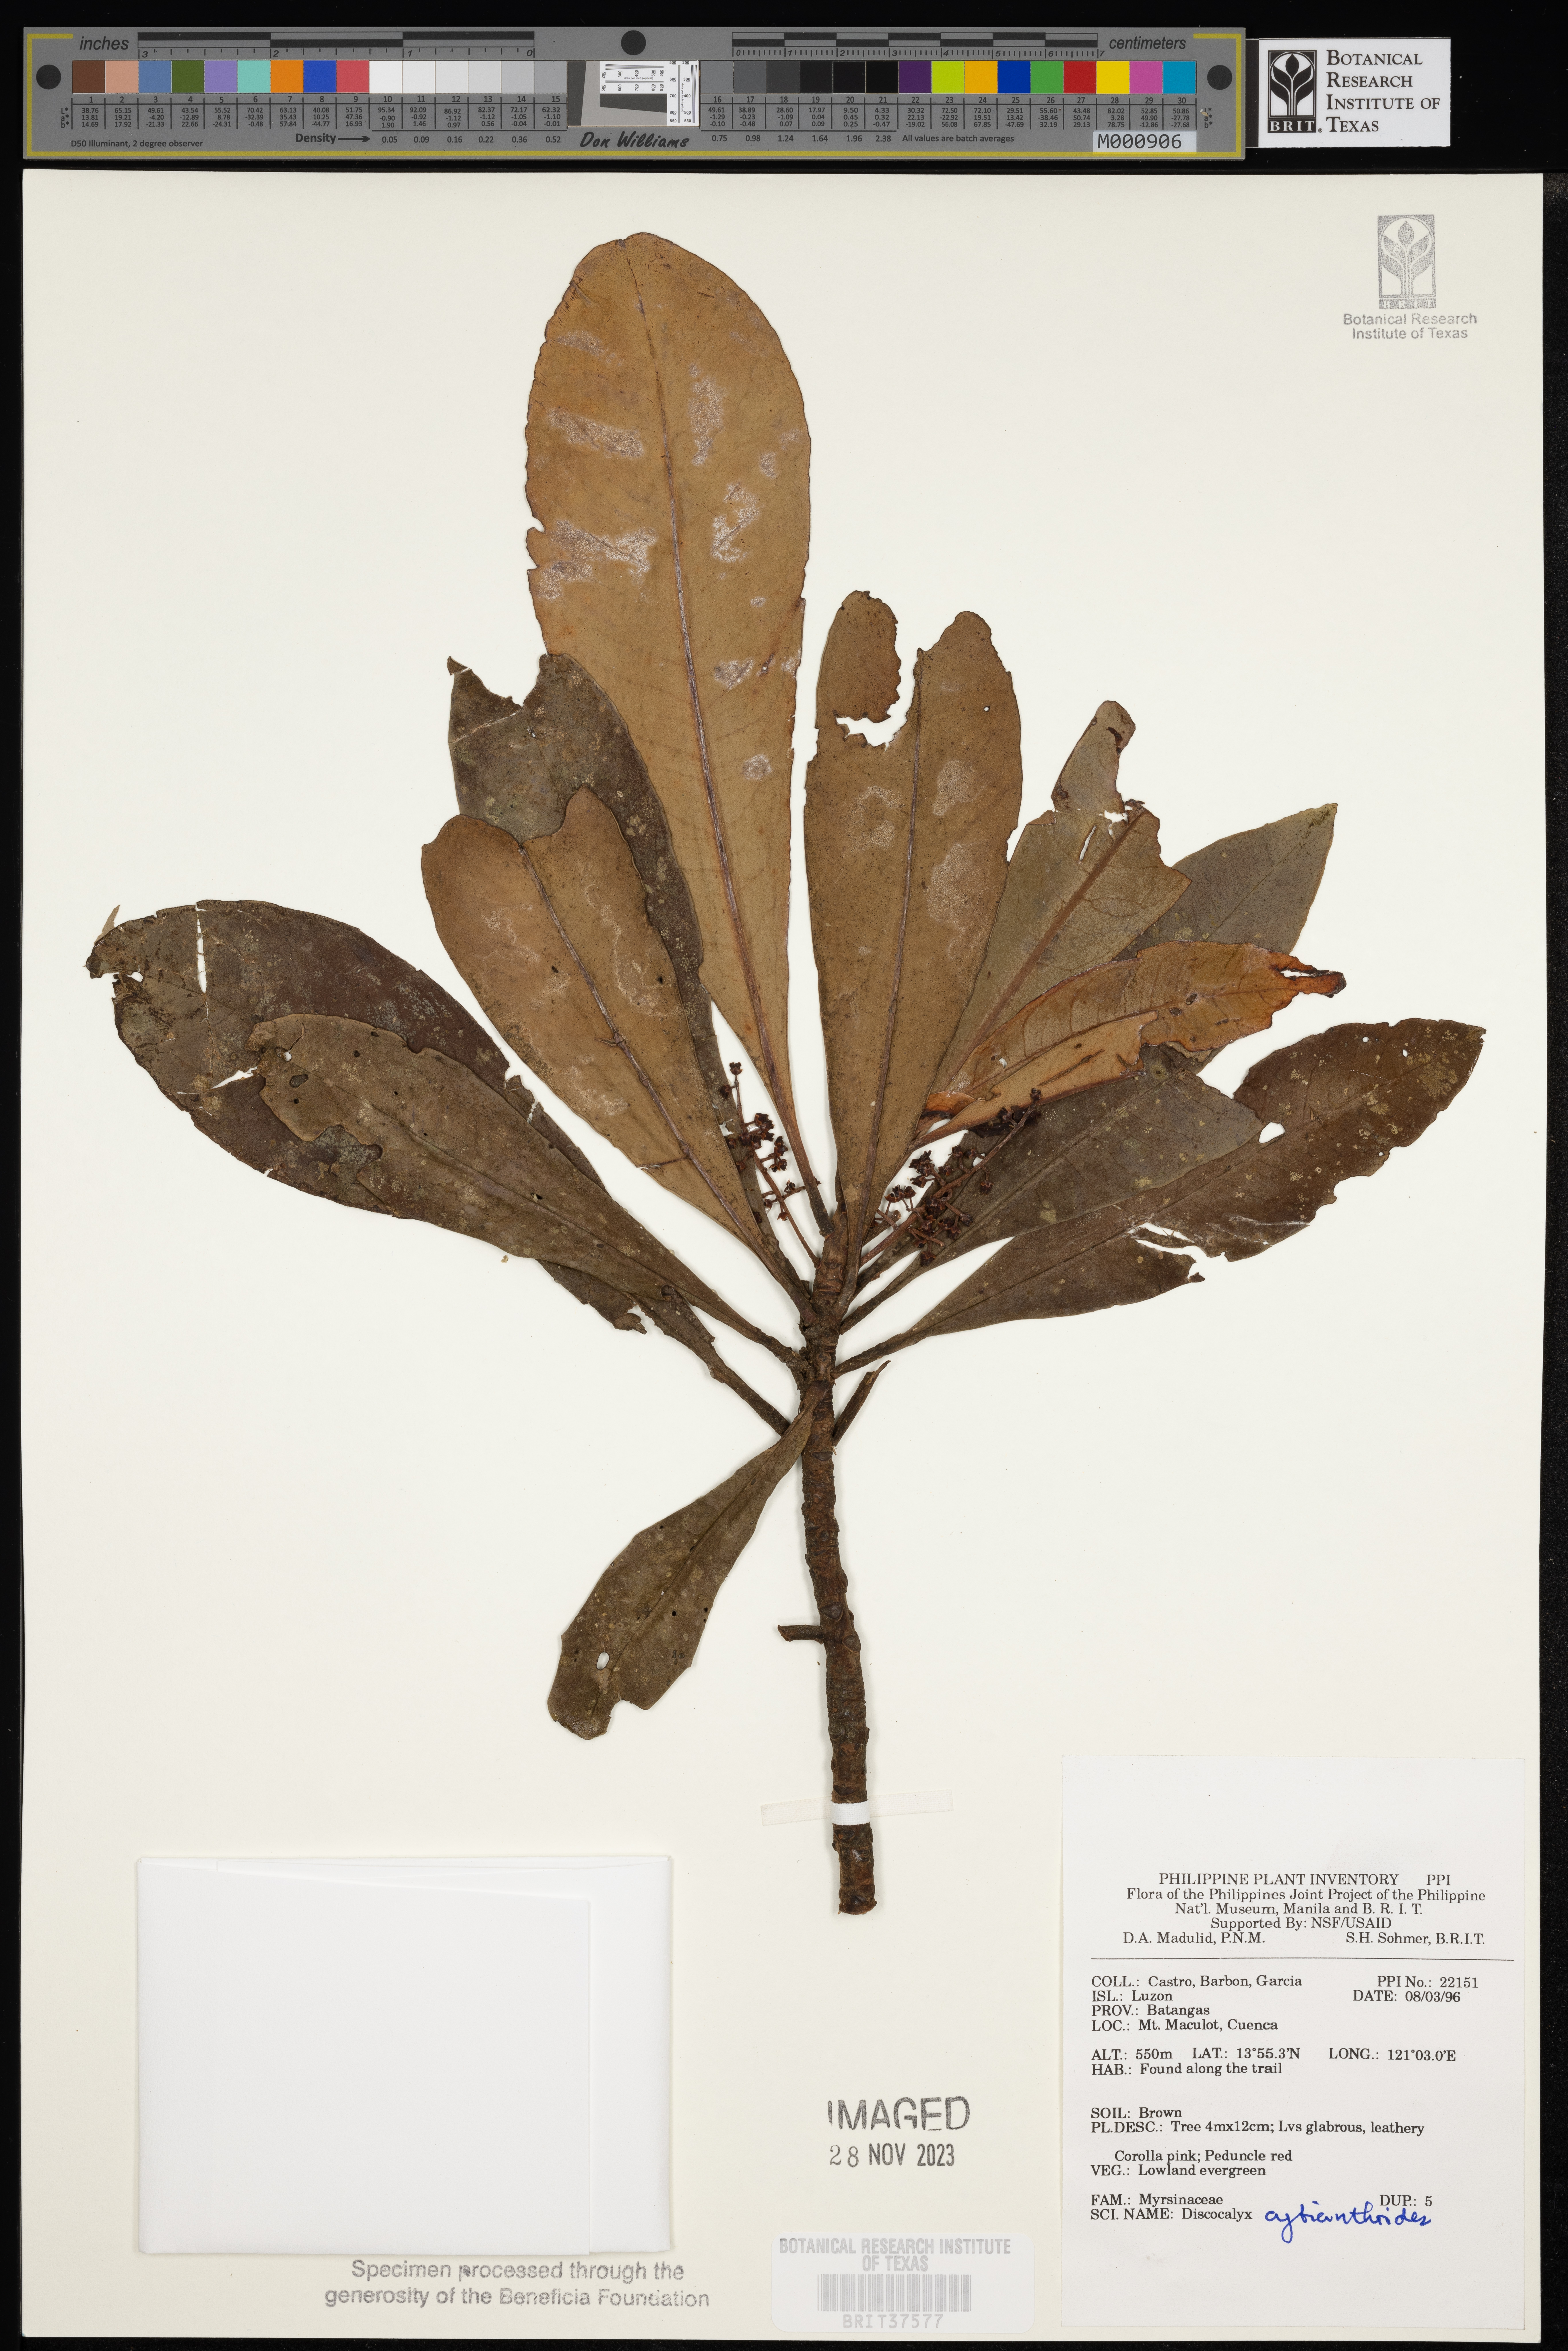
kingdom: Plantae
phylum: Tracheophyta
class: Magnoliopsida
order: Ericales
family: Primulaceae
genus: Discocalyx
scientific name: Discocalyx cybianthoides
